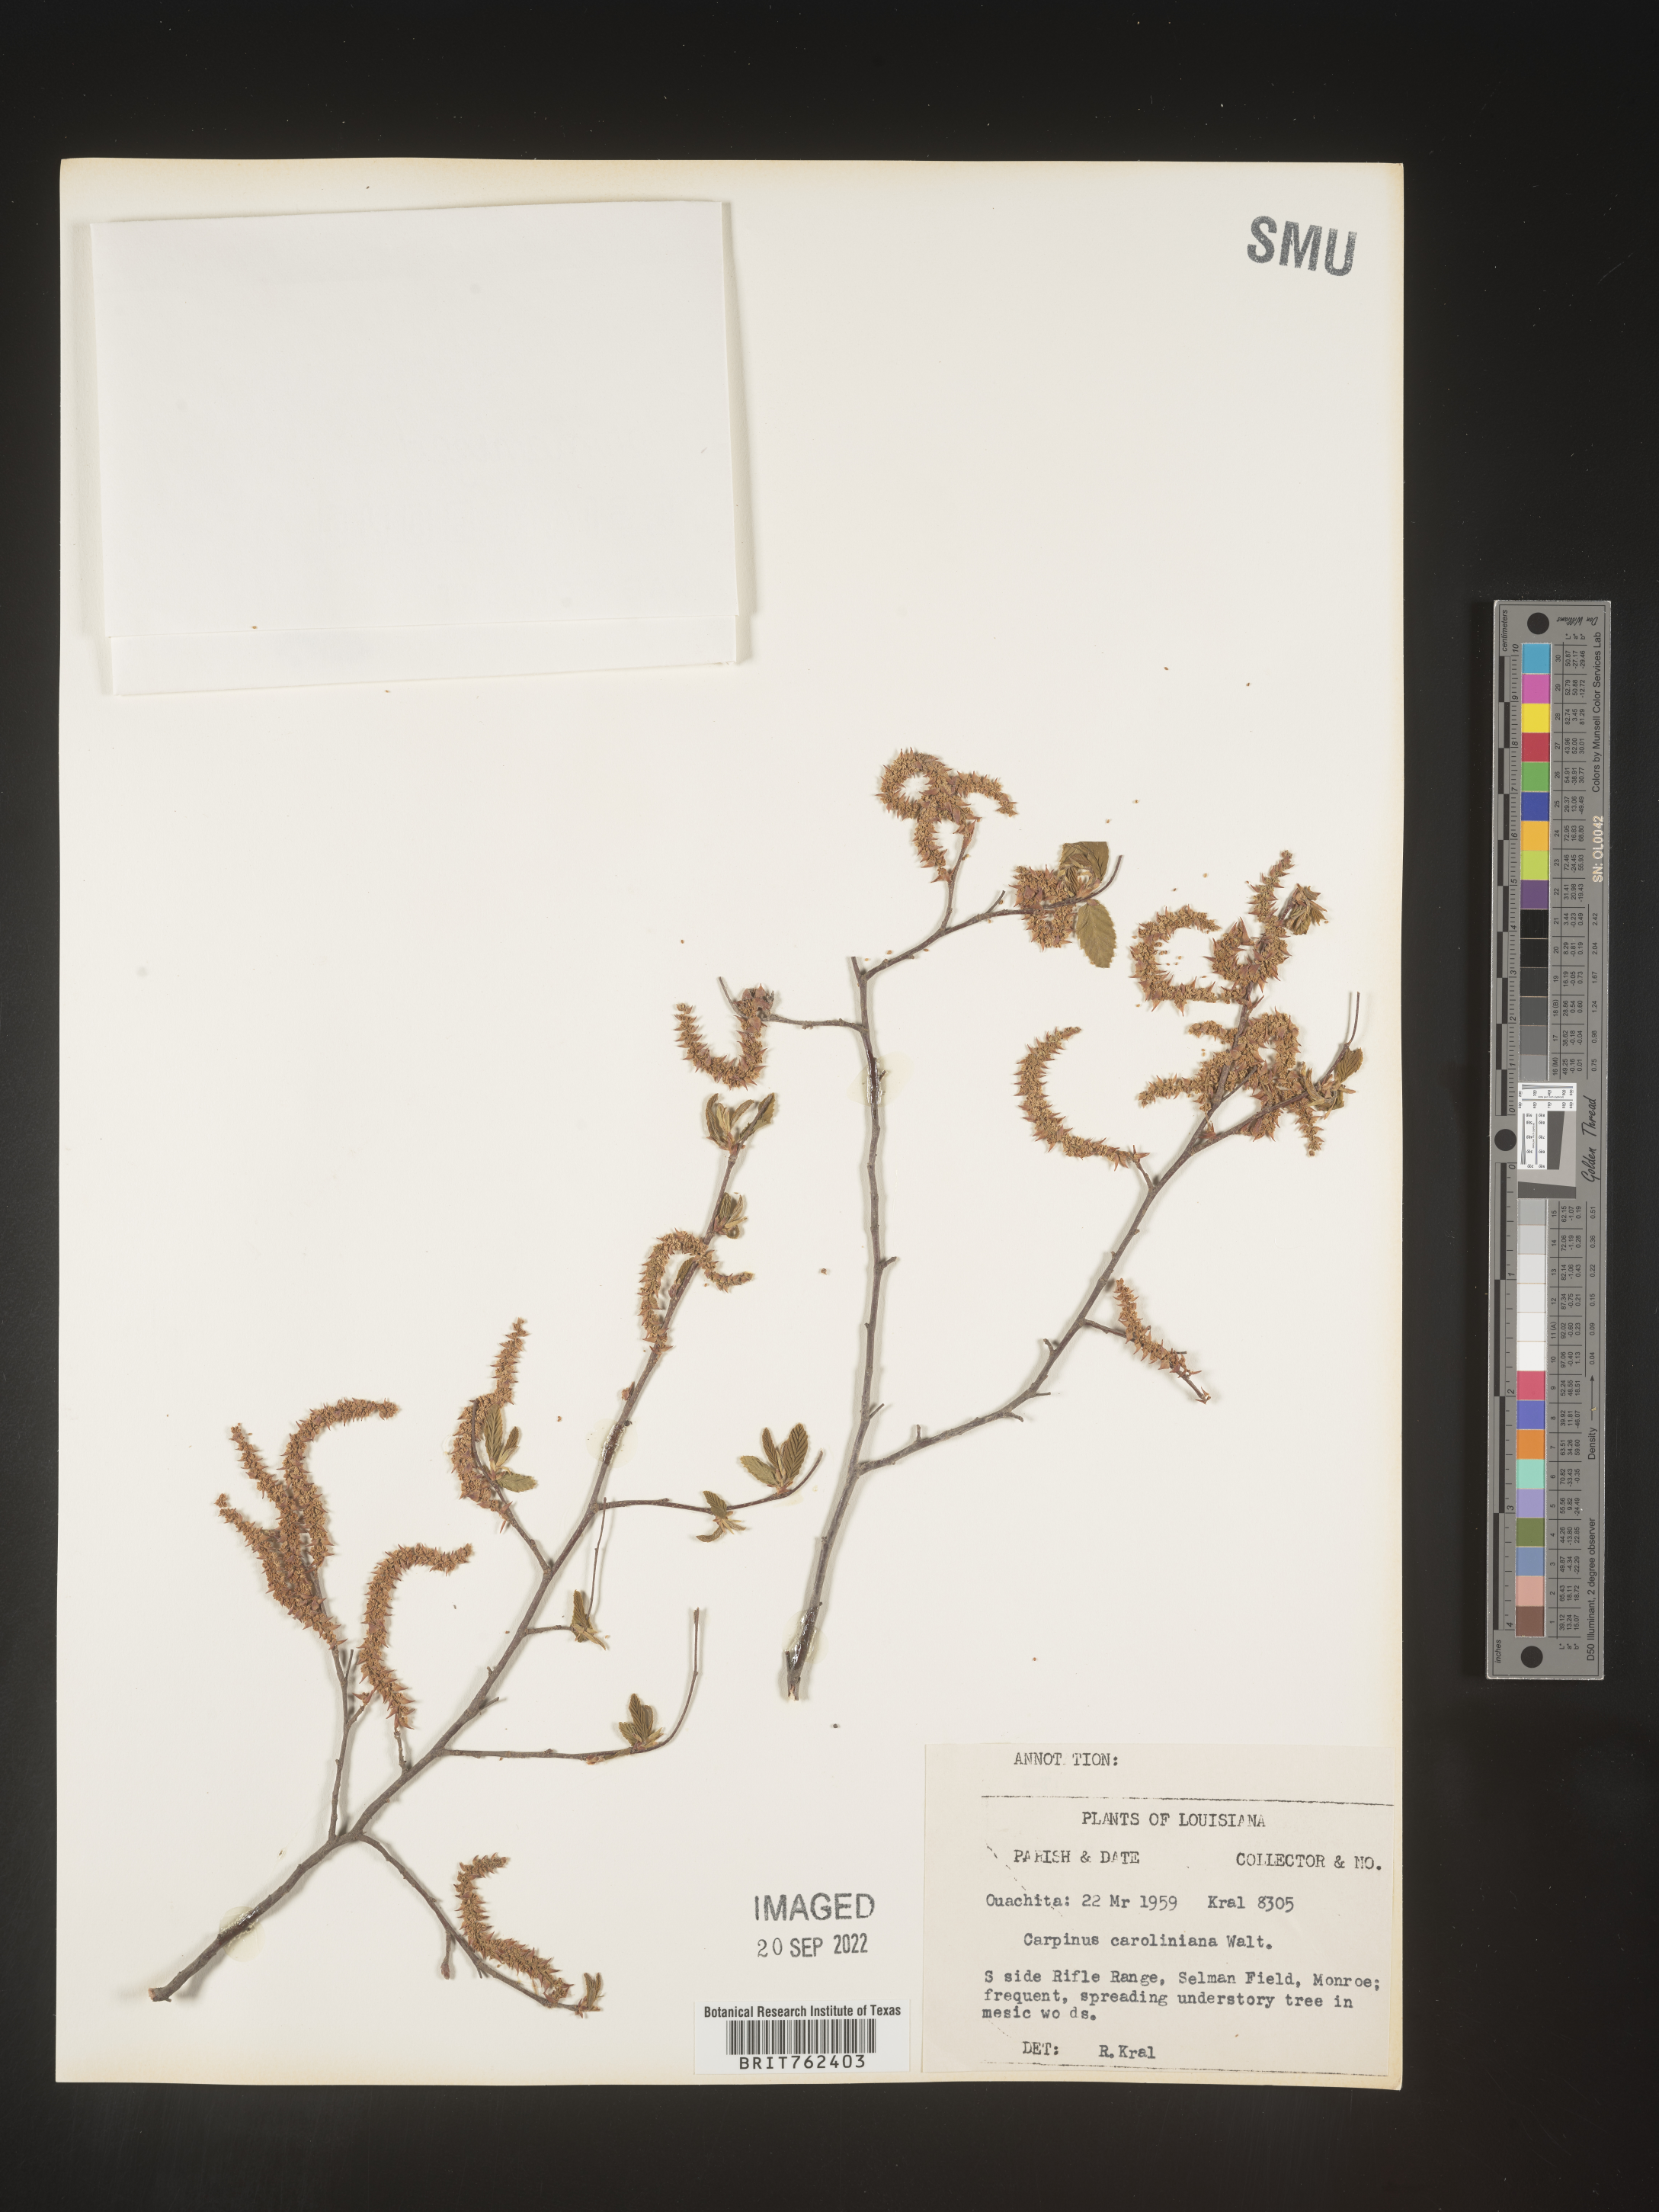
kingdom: Plantae
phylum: Tracheophyta
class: Magnoliopsida
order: Fagales
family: Betulaceae
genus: Carpinus
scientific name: Carpinus caroliniana
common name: American hornbeam
